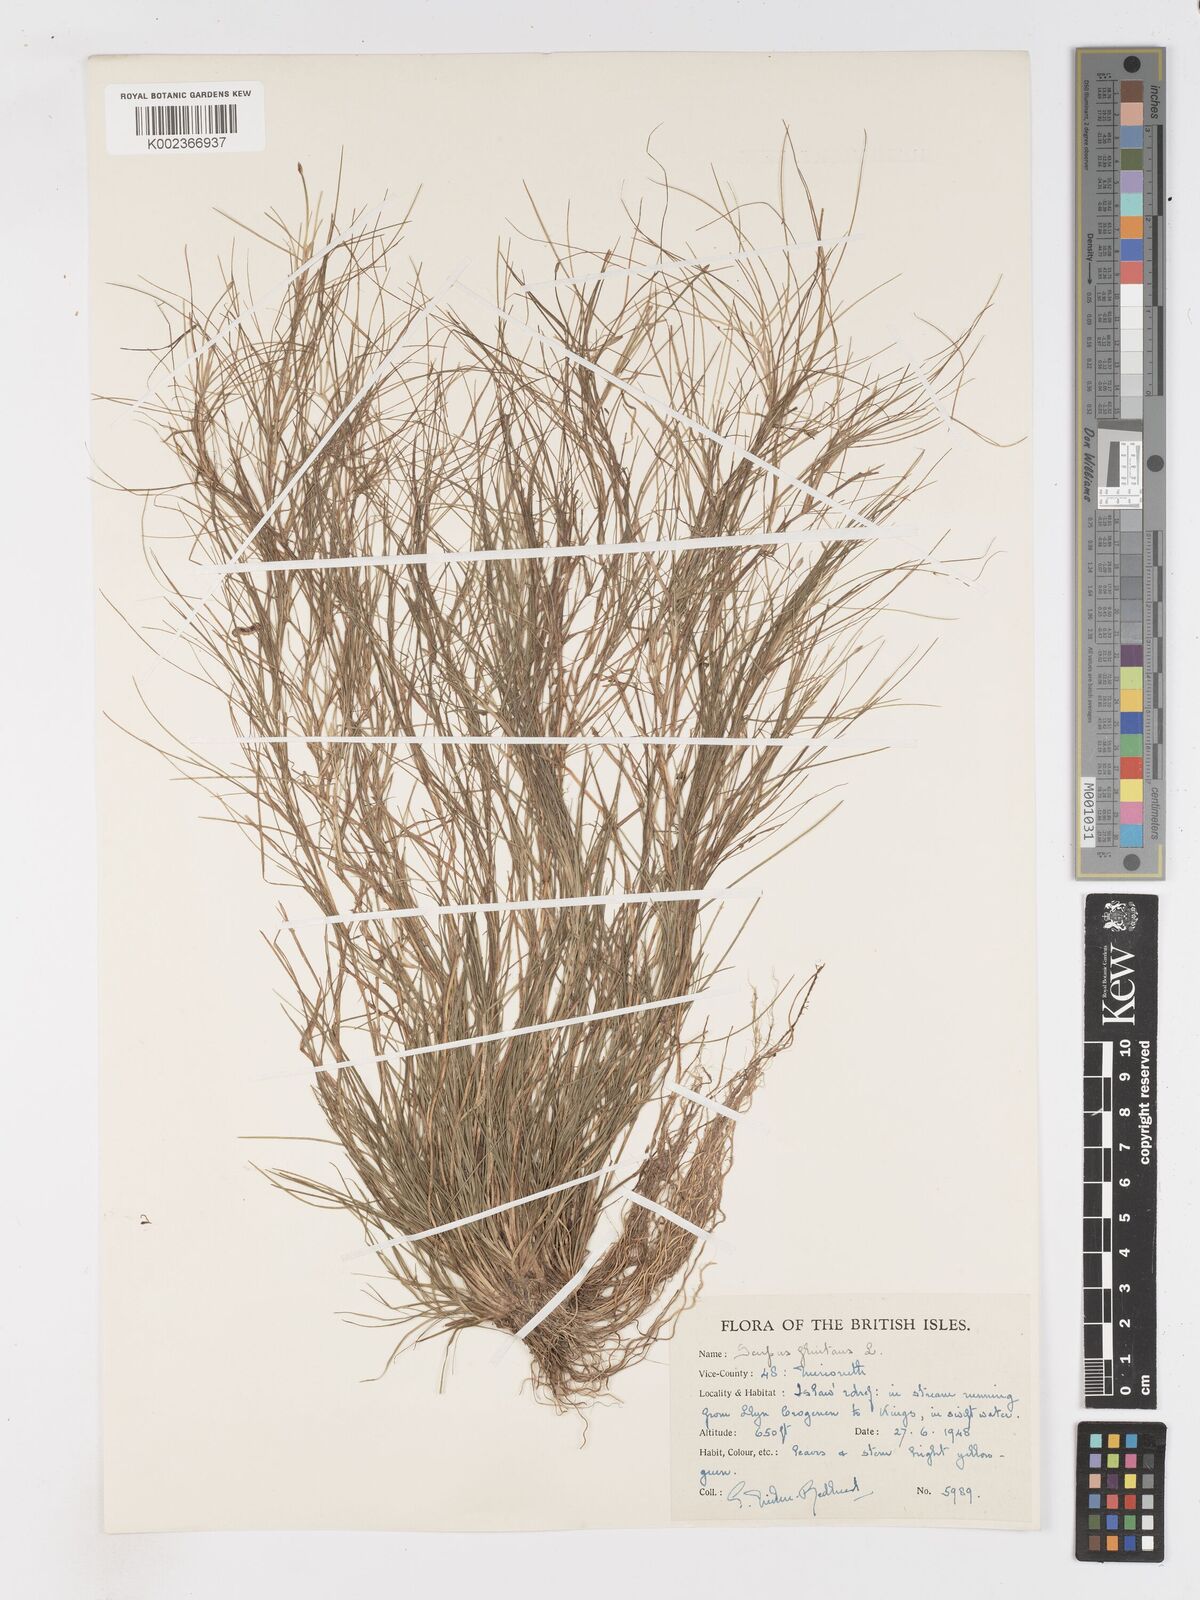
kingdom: Plantae
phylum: Tracheophyta
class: Liliopsida
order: Poales
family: Cyperaceae
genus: Isolepis
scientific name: Isolepis fluitans
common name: Floating club-rush
